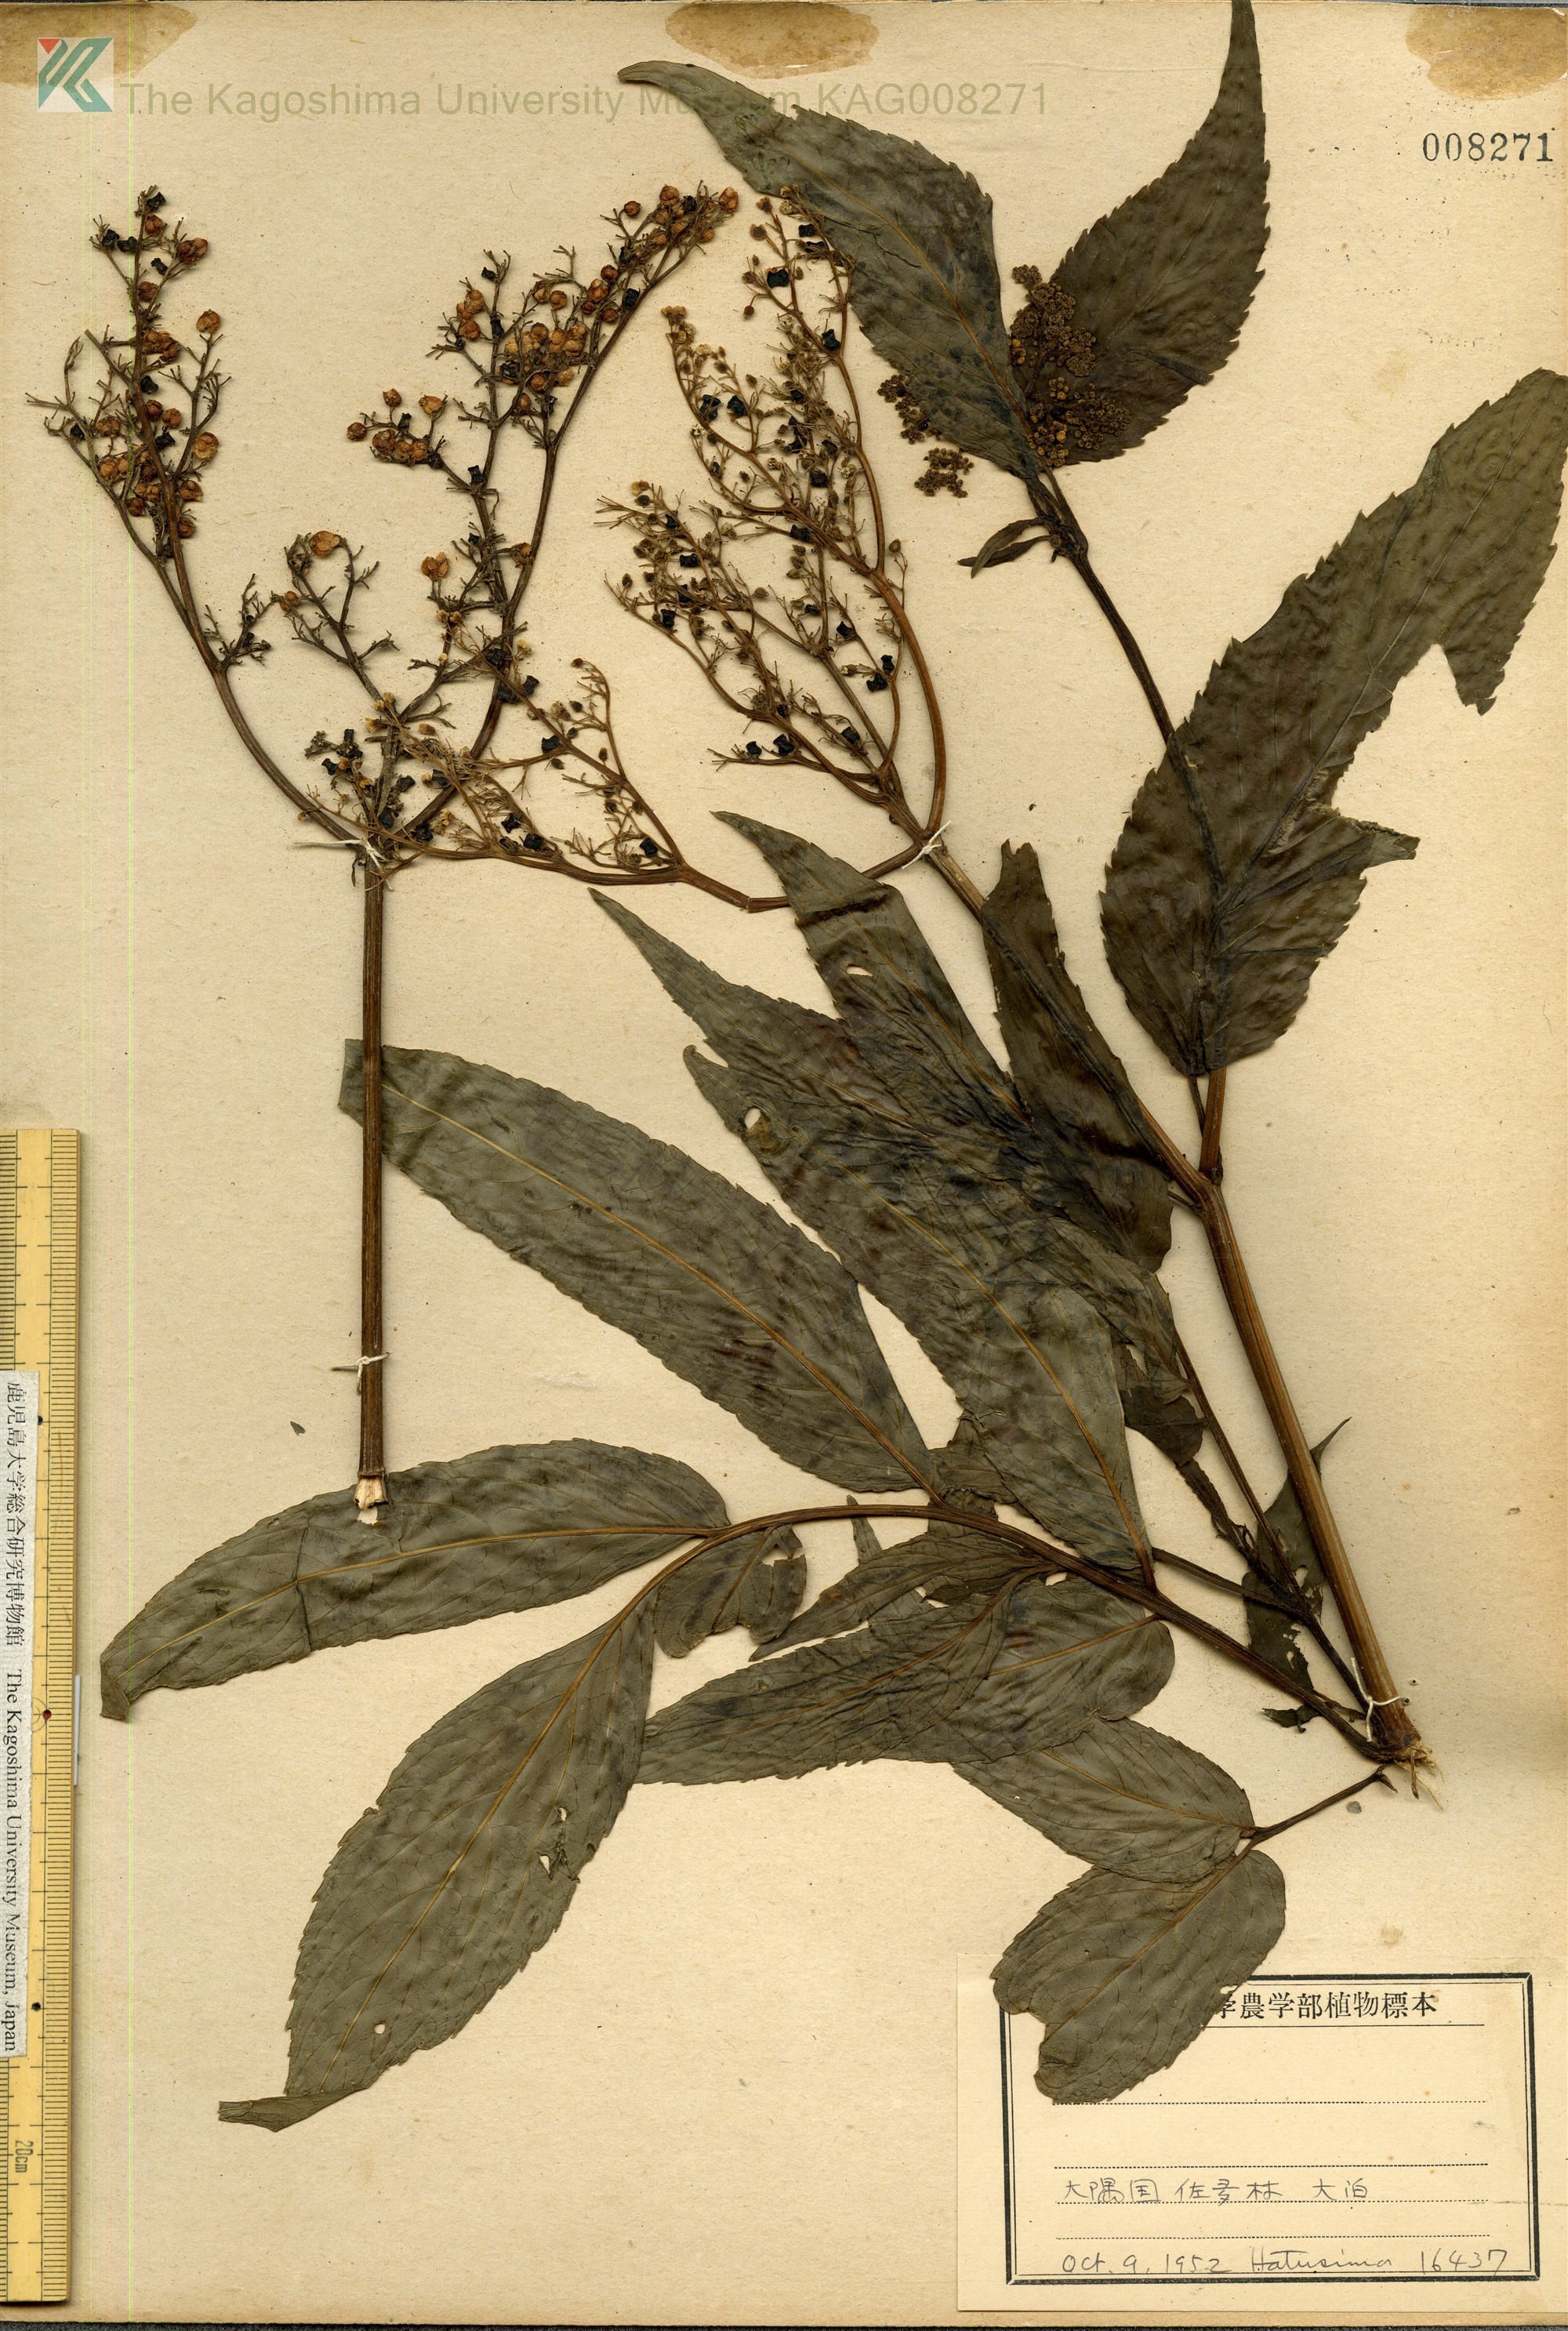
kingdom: Plantae
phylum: Tracheophyta
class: Magnoliopsida
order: Dipsacales
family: Viburnaceae
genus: Sambucus
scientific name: Sambucus javanica
